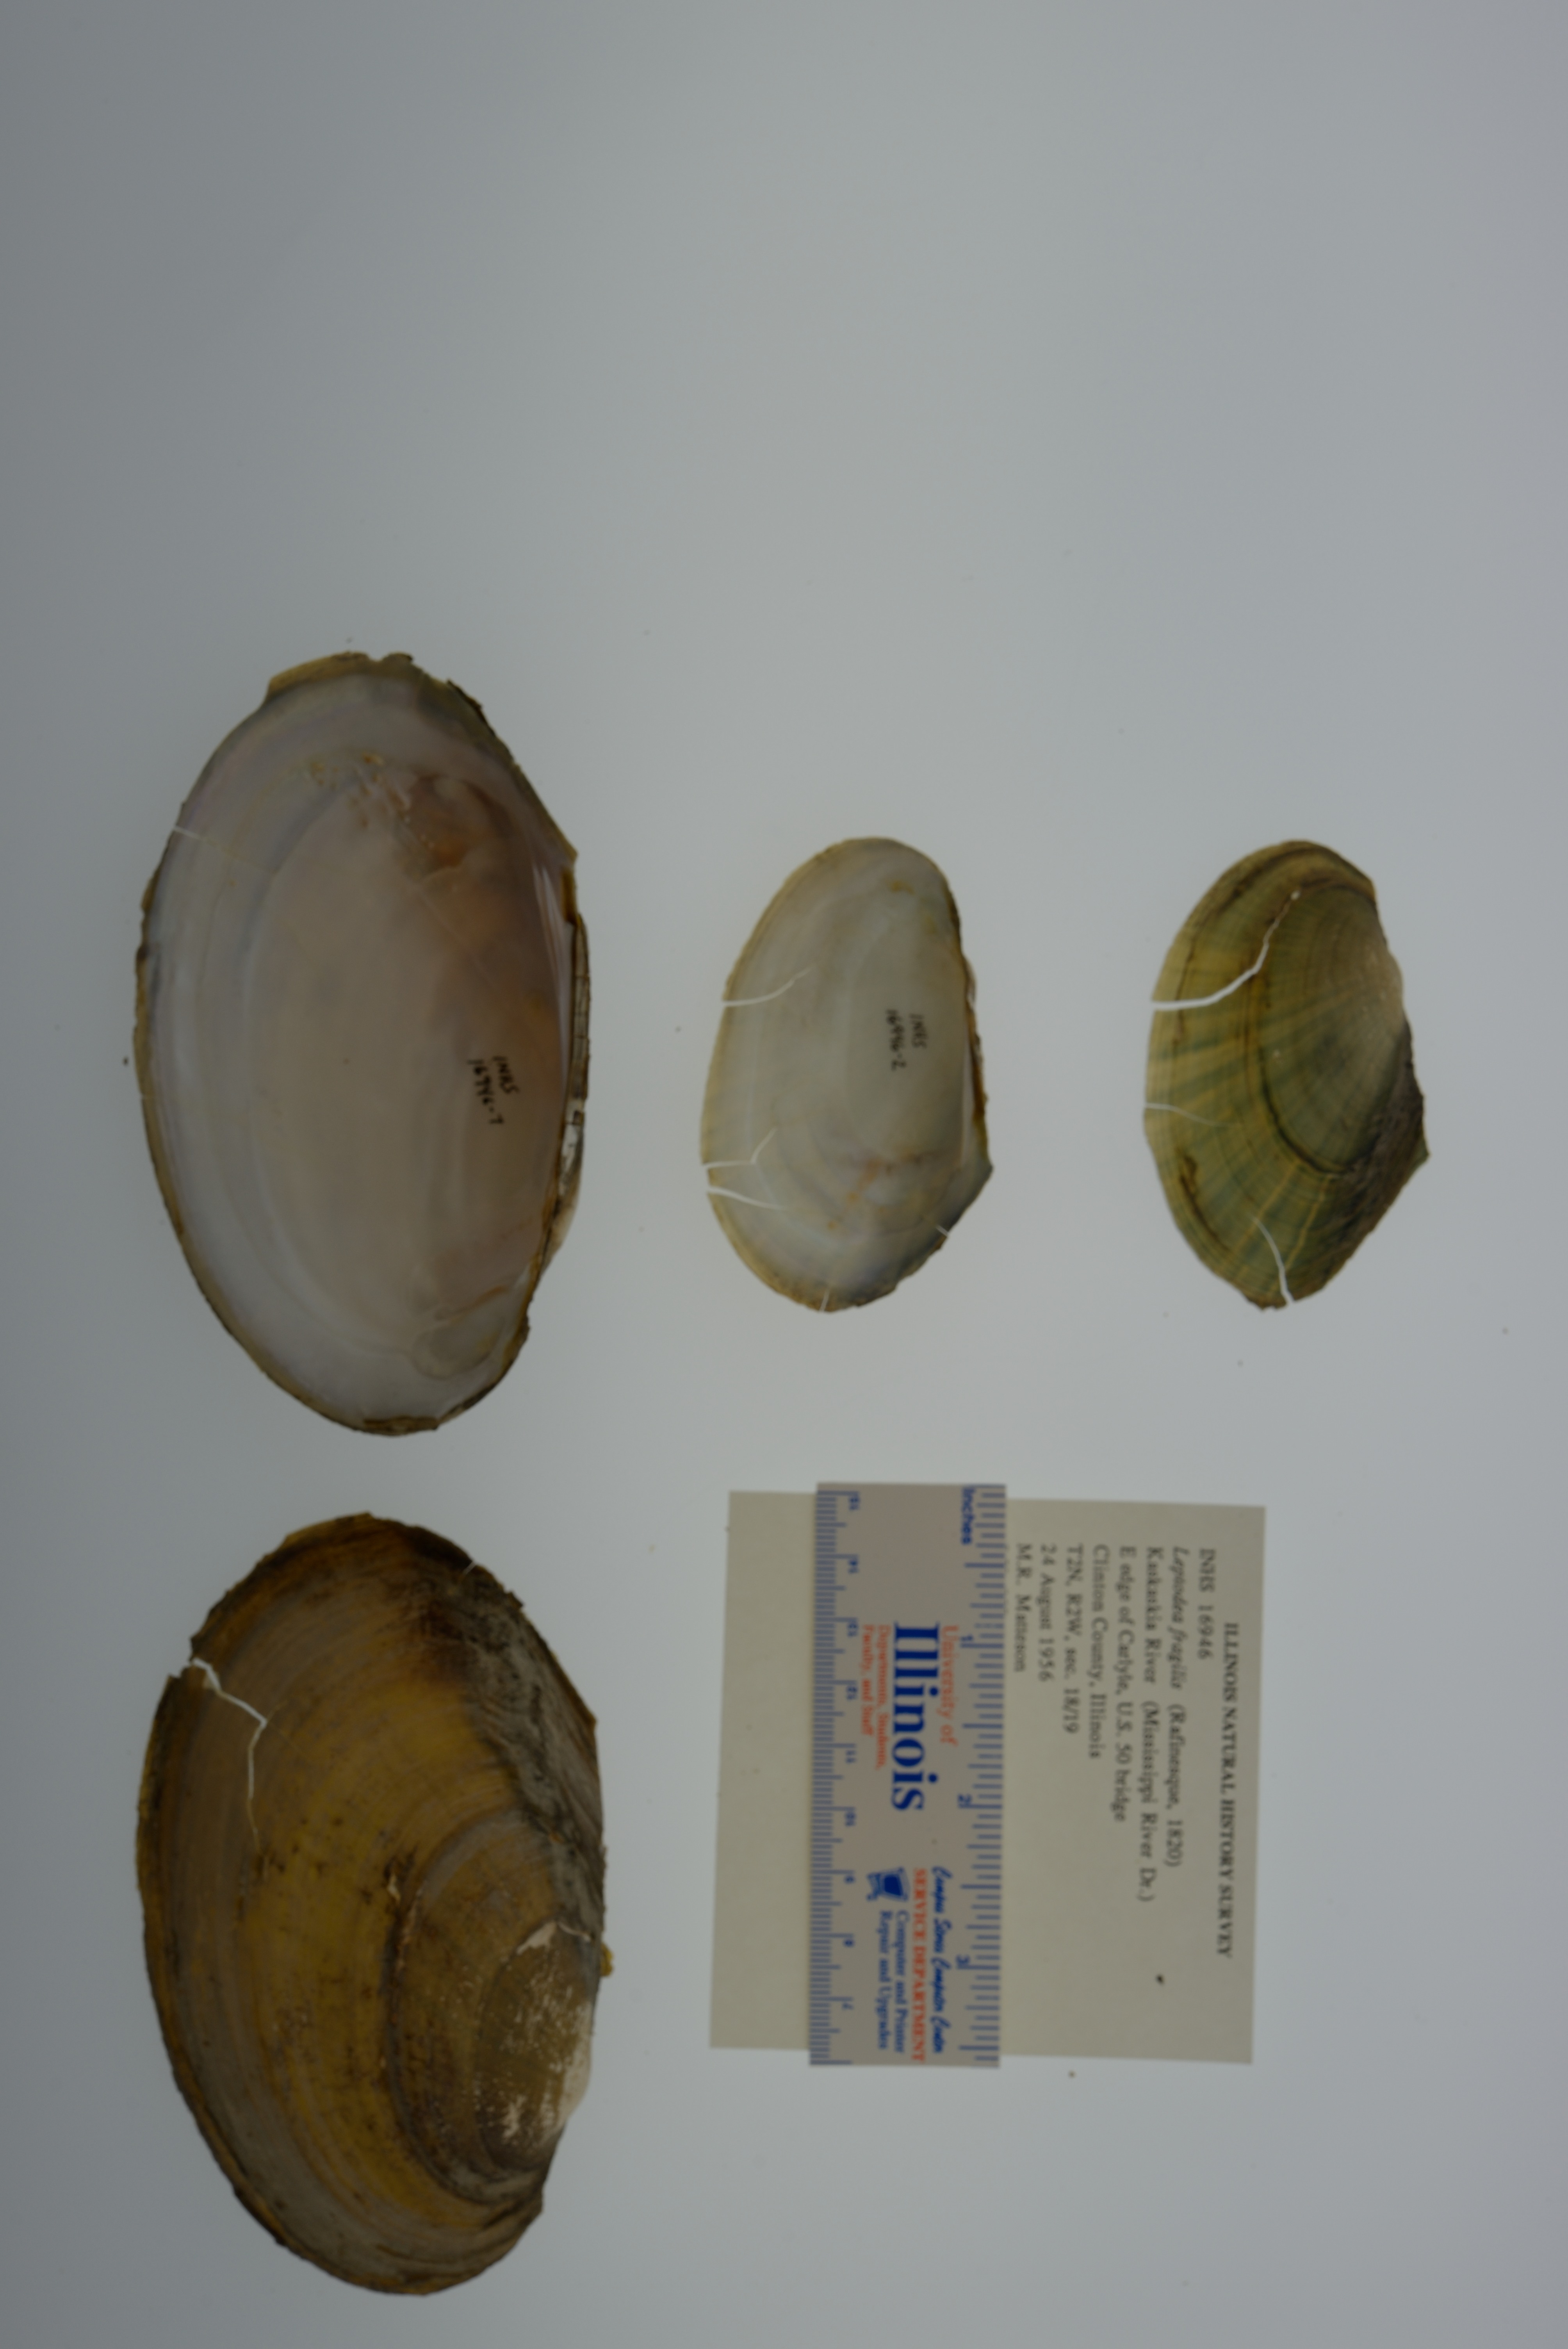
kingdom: Animalia
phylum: Mollusca
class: Bivalvia
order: Unionida
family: Unionidae
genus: Potamilus
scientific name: Potamilus fragilis
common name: Fragile papershell
